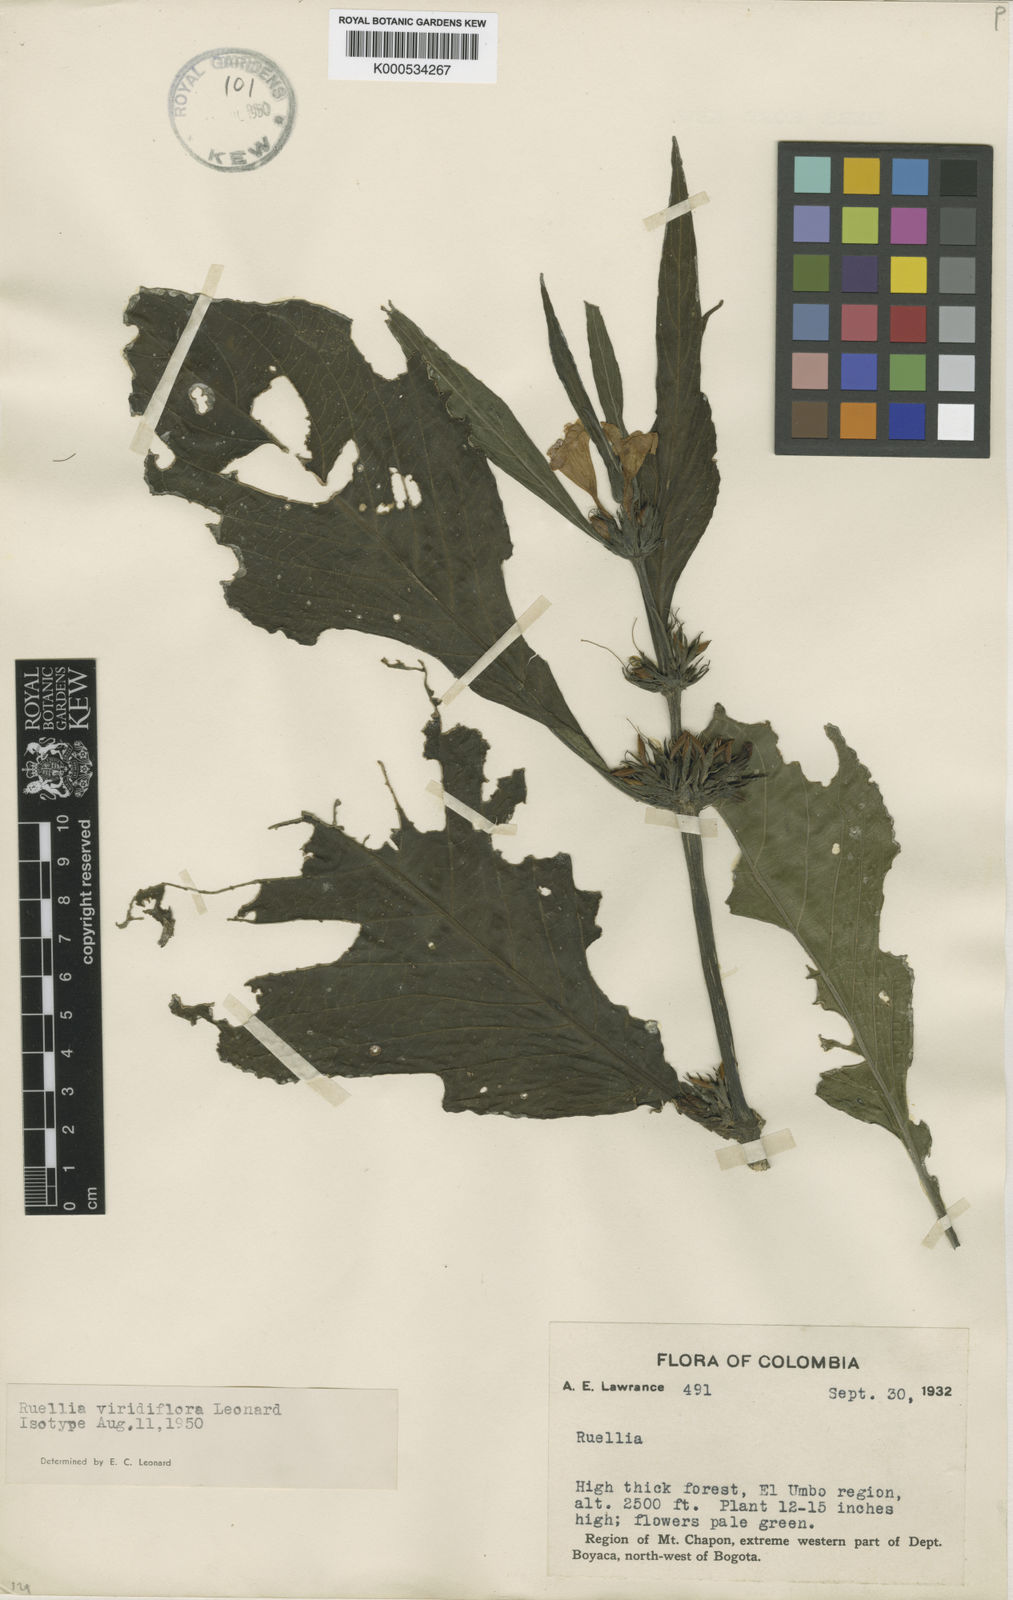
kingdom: Plantae
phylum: Tracheophyta
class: Magnoliopsida
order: Lamiales
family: Acanthaceae
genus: Ruellia
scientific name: Ruellia viridiflora
